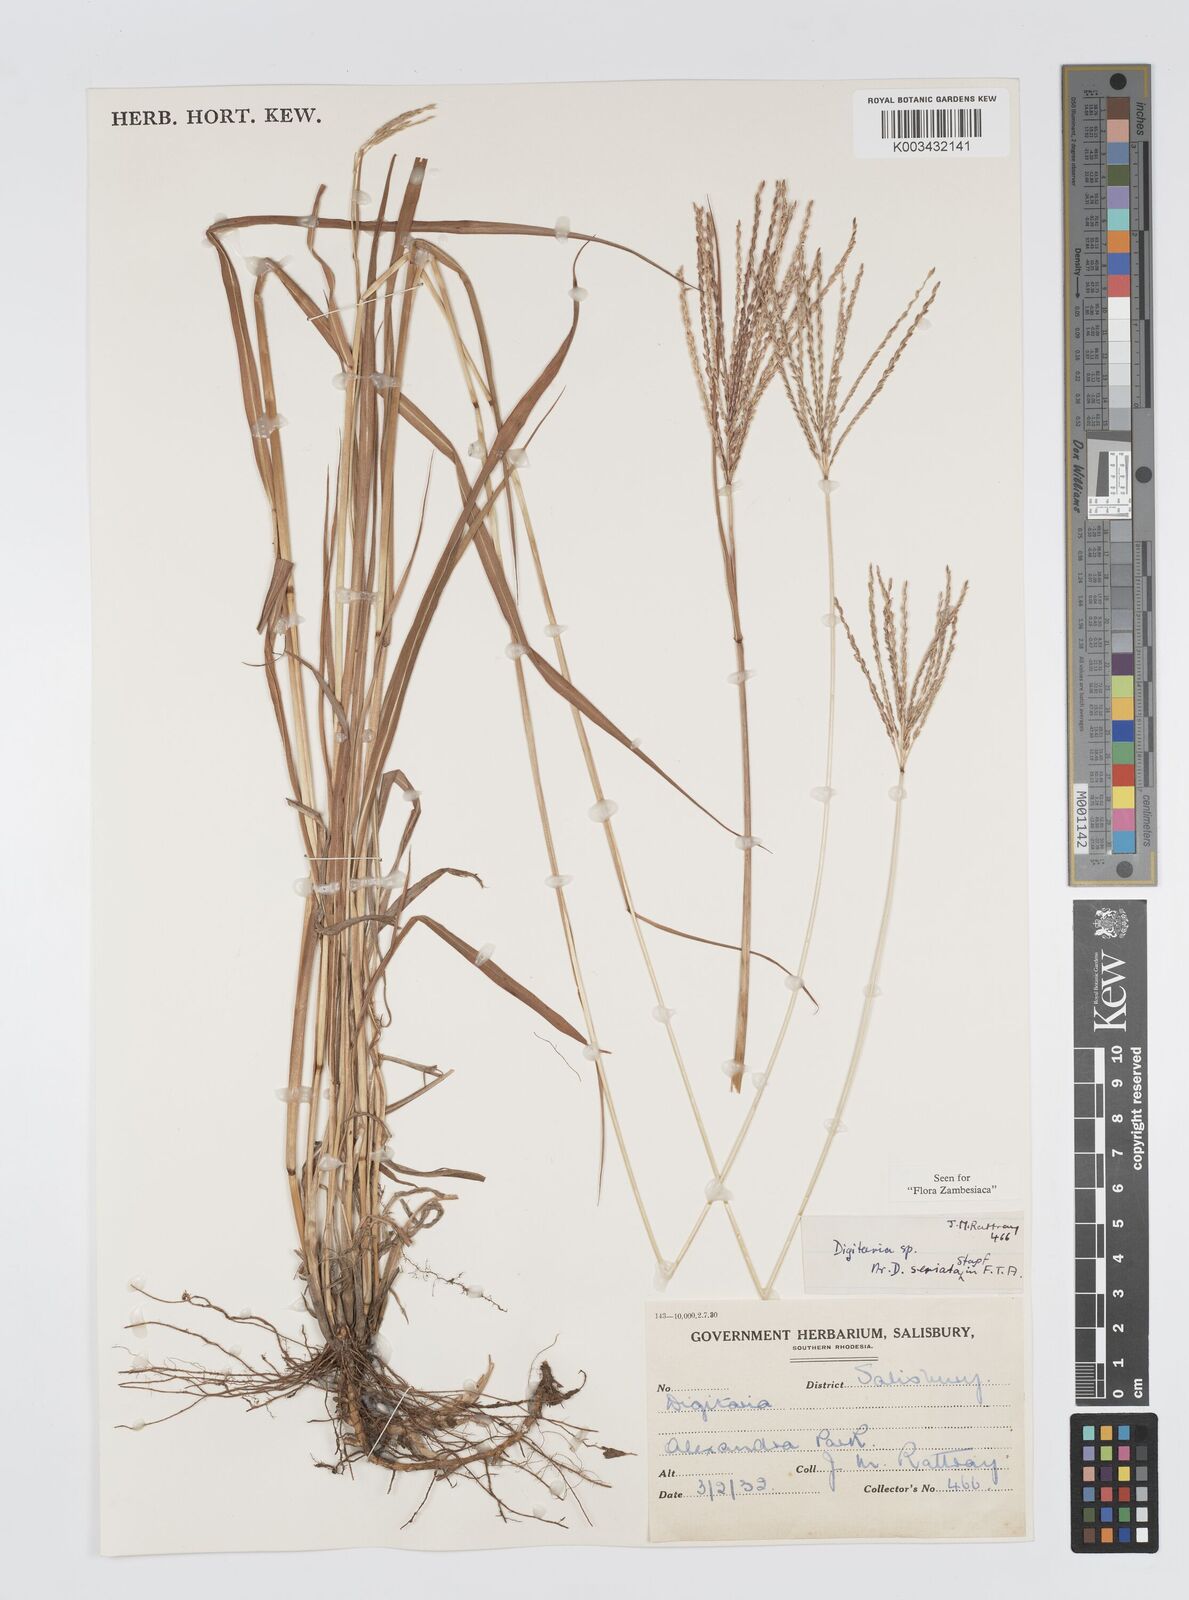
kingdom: Plantae
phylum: Tracheophyta
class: Liliopsida
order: Poales
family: Poaceae
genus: Digitaria
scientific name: Digitaria milanjiana
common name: Madagascar crabgrass
